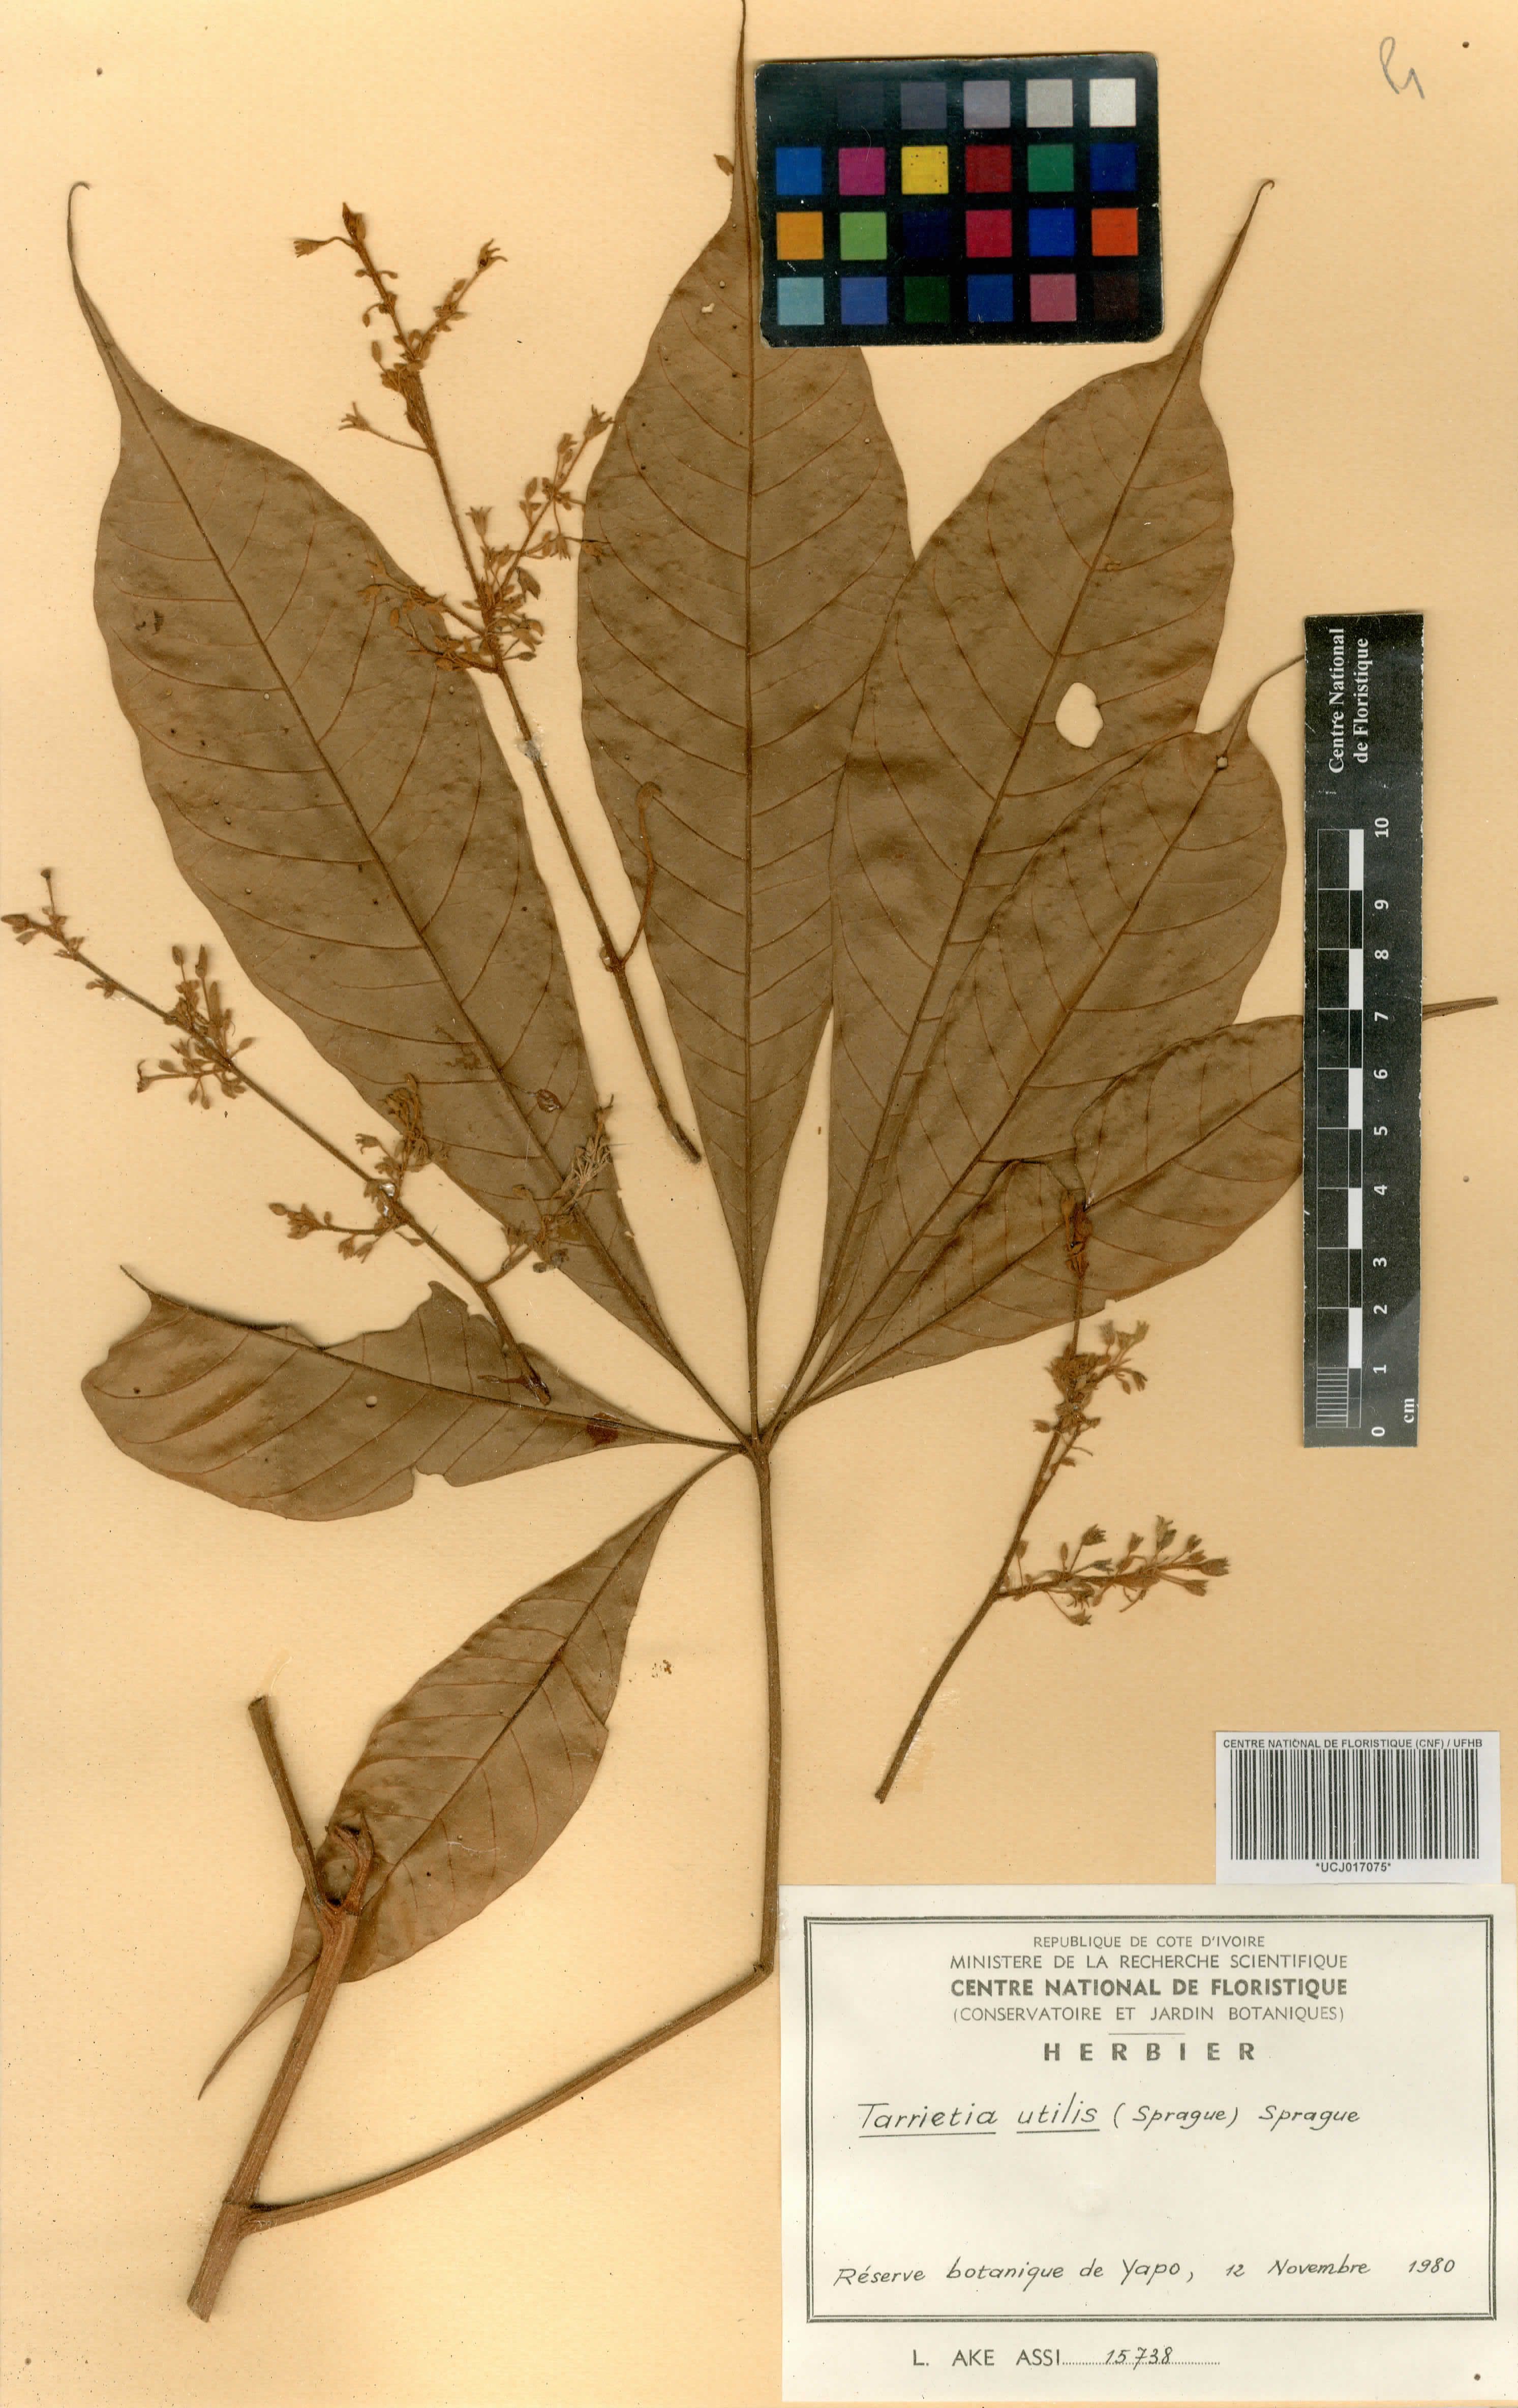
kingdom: Plantae
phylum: Tracheophyta
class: Magnoliopsida
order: Malvales
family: Malvaceae
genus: Heritiera
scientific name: Heritiera utilis
